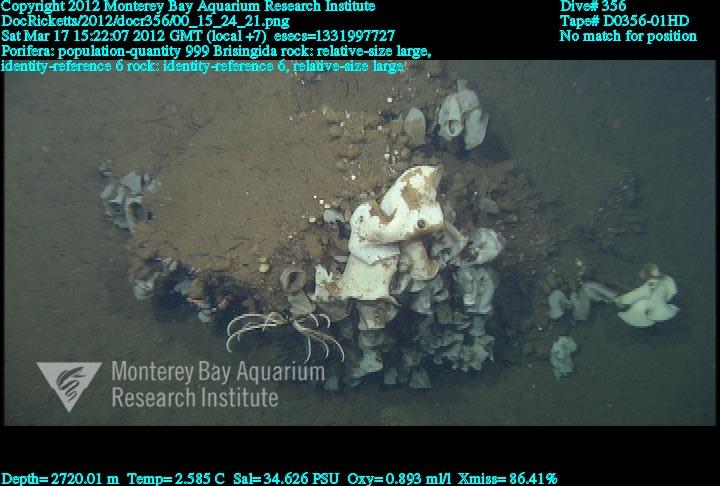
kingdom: Animalia
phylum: Porifera
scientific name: Porifera
